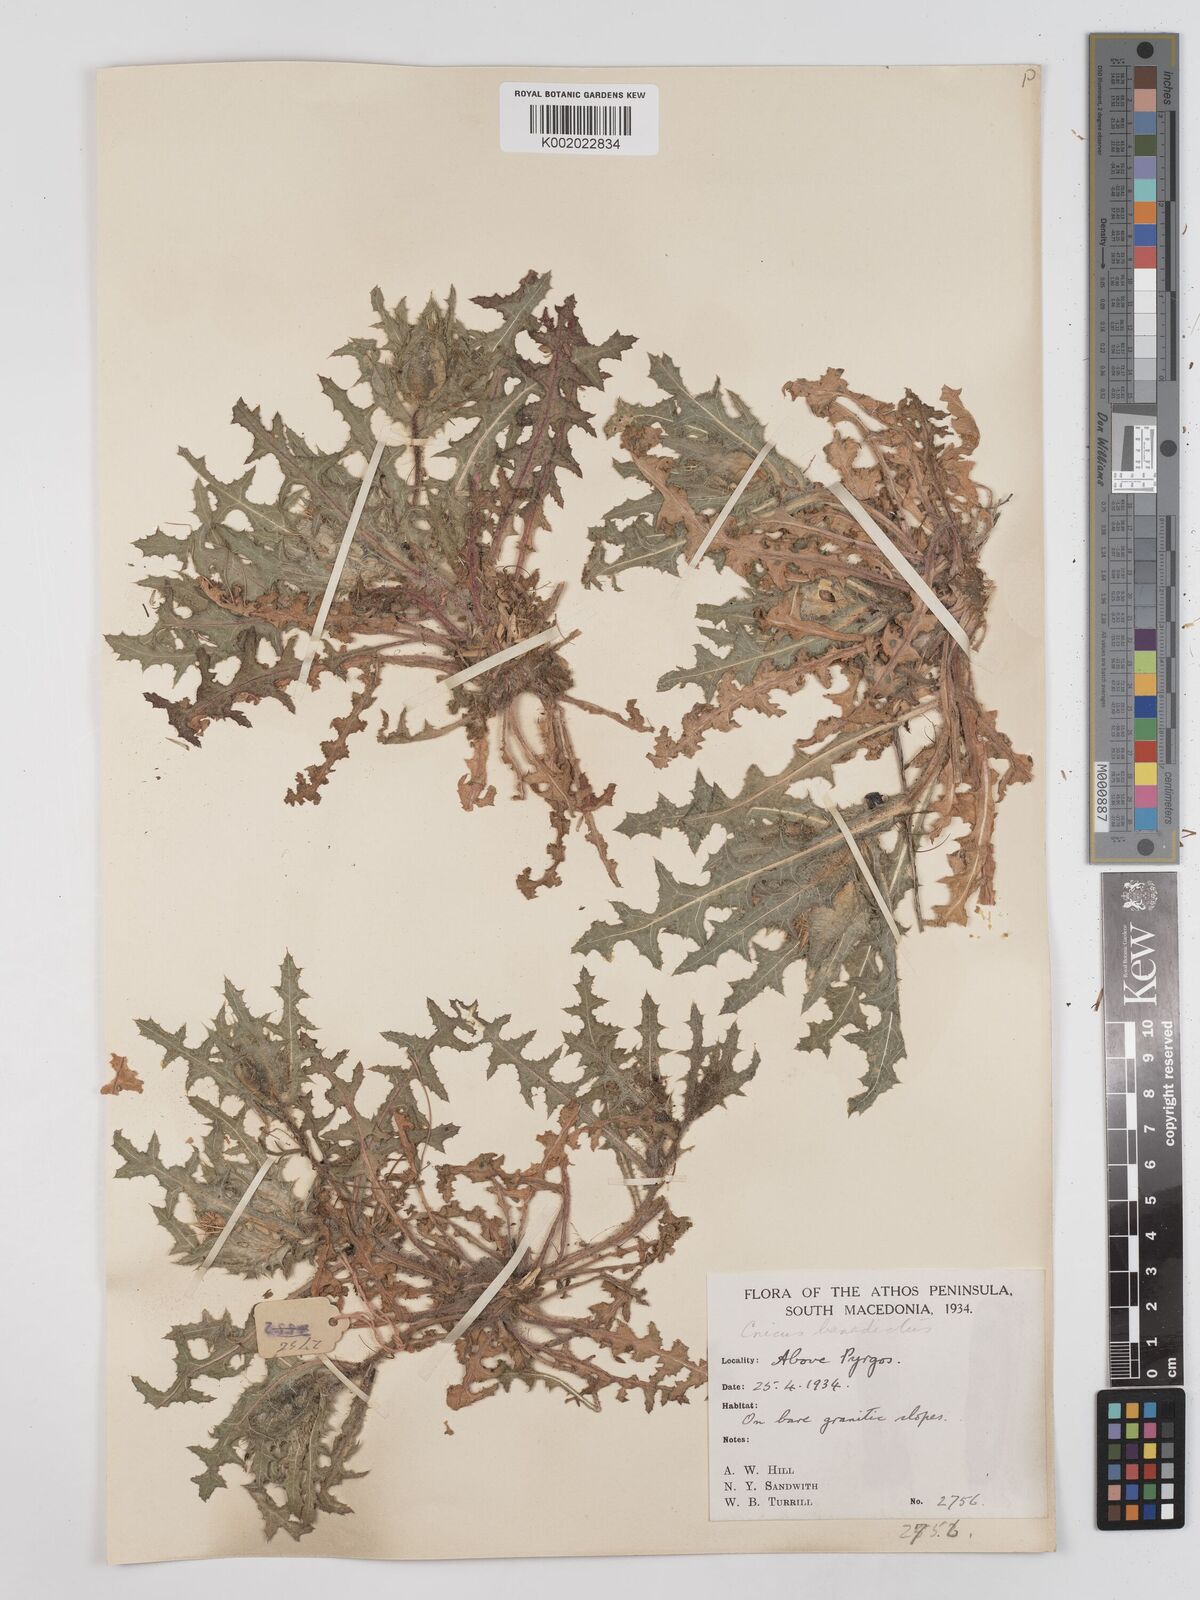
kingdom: Plantae
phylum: Tracheophyta
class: Magnoliopsida
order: Asterales
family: Asteraceae
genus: Centaurea
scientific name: Centaurea benedicta
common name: Blessed thistle
